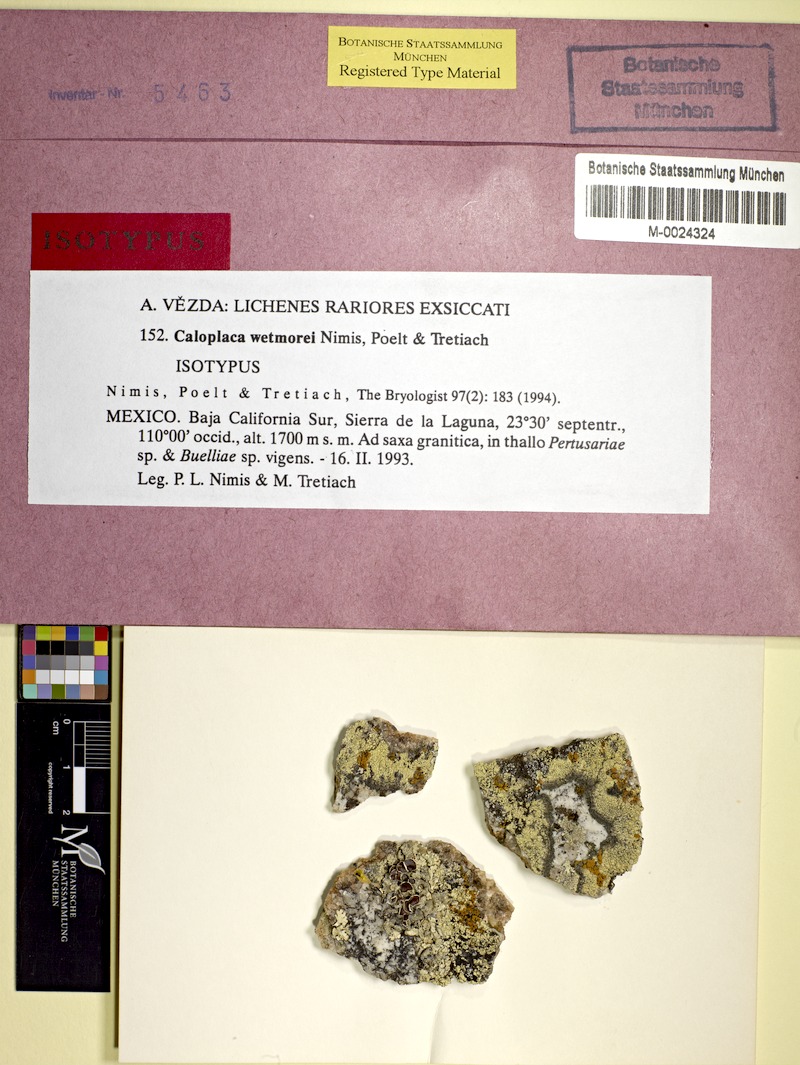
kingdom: Fungi
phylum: Ascomycota
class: Lecanoromycetes
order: Teloschistales
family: Teloschistaceae
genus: Tassiloa
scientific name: Tassiloa wetmorei
